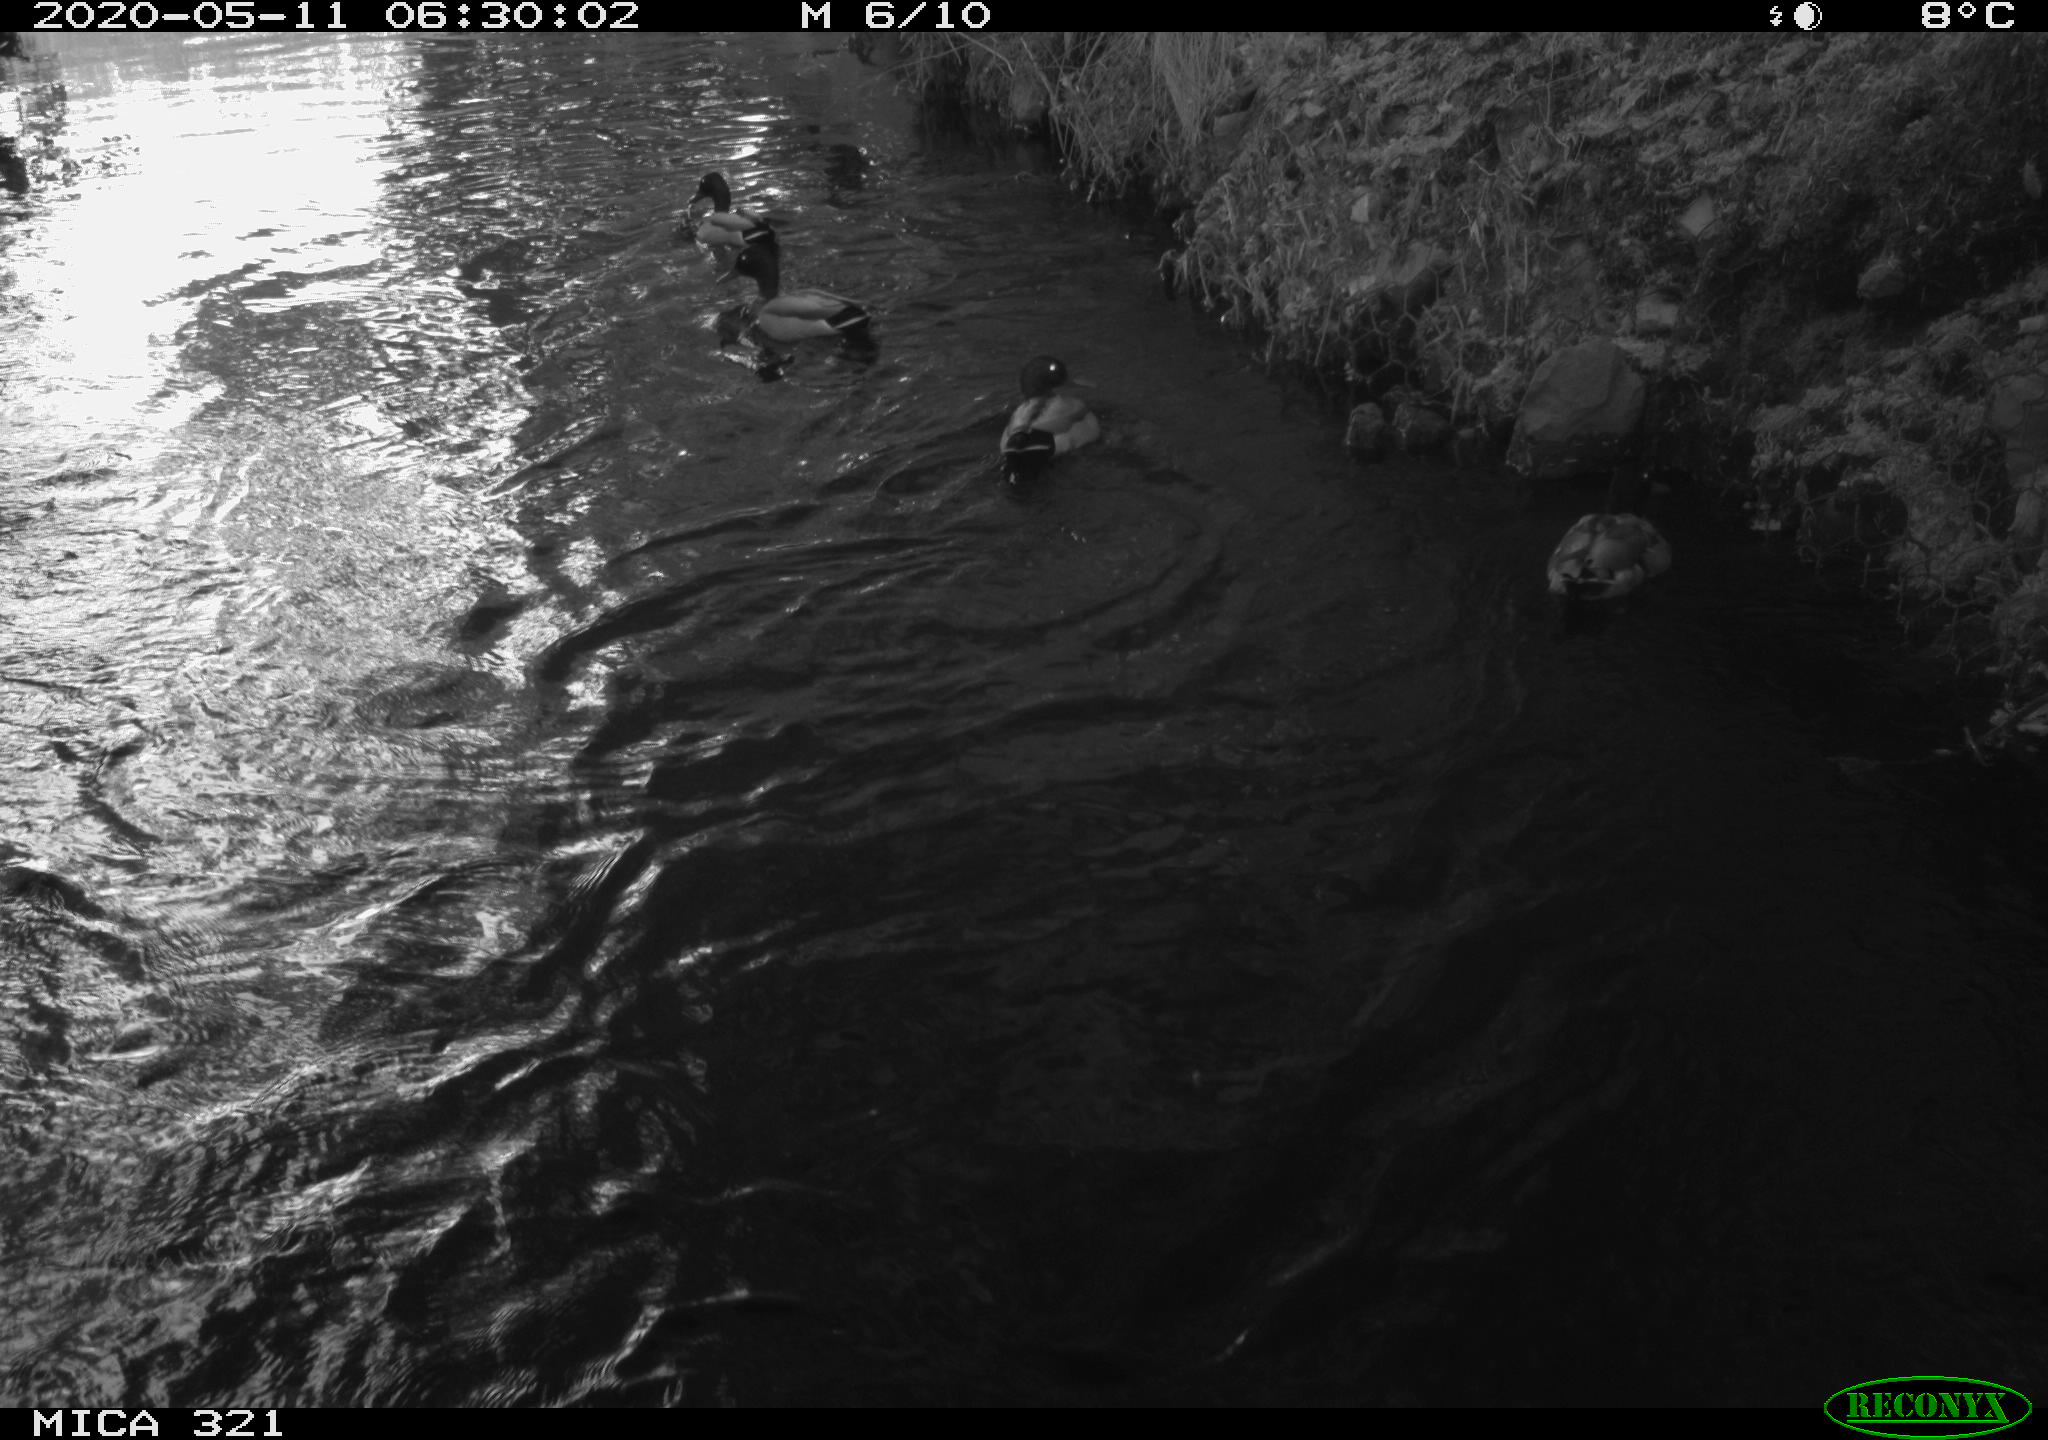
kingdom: Animalia
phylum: Chordata
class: Aves
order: Anseriformes
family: Anatidae
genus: Anas
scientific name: Anas platyrhynchos
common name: Mallard
